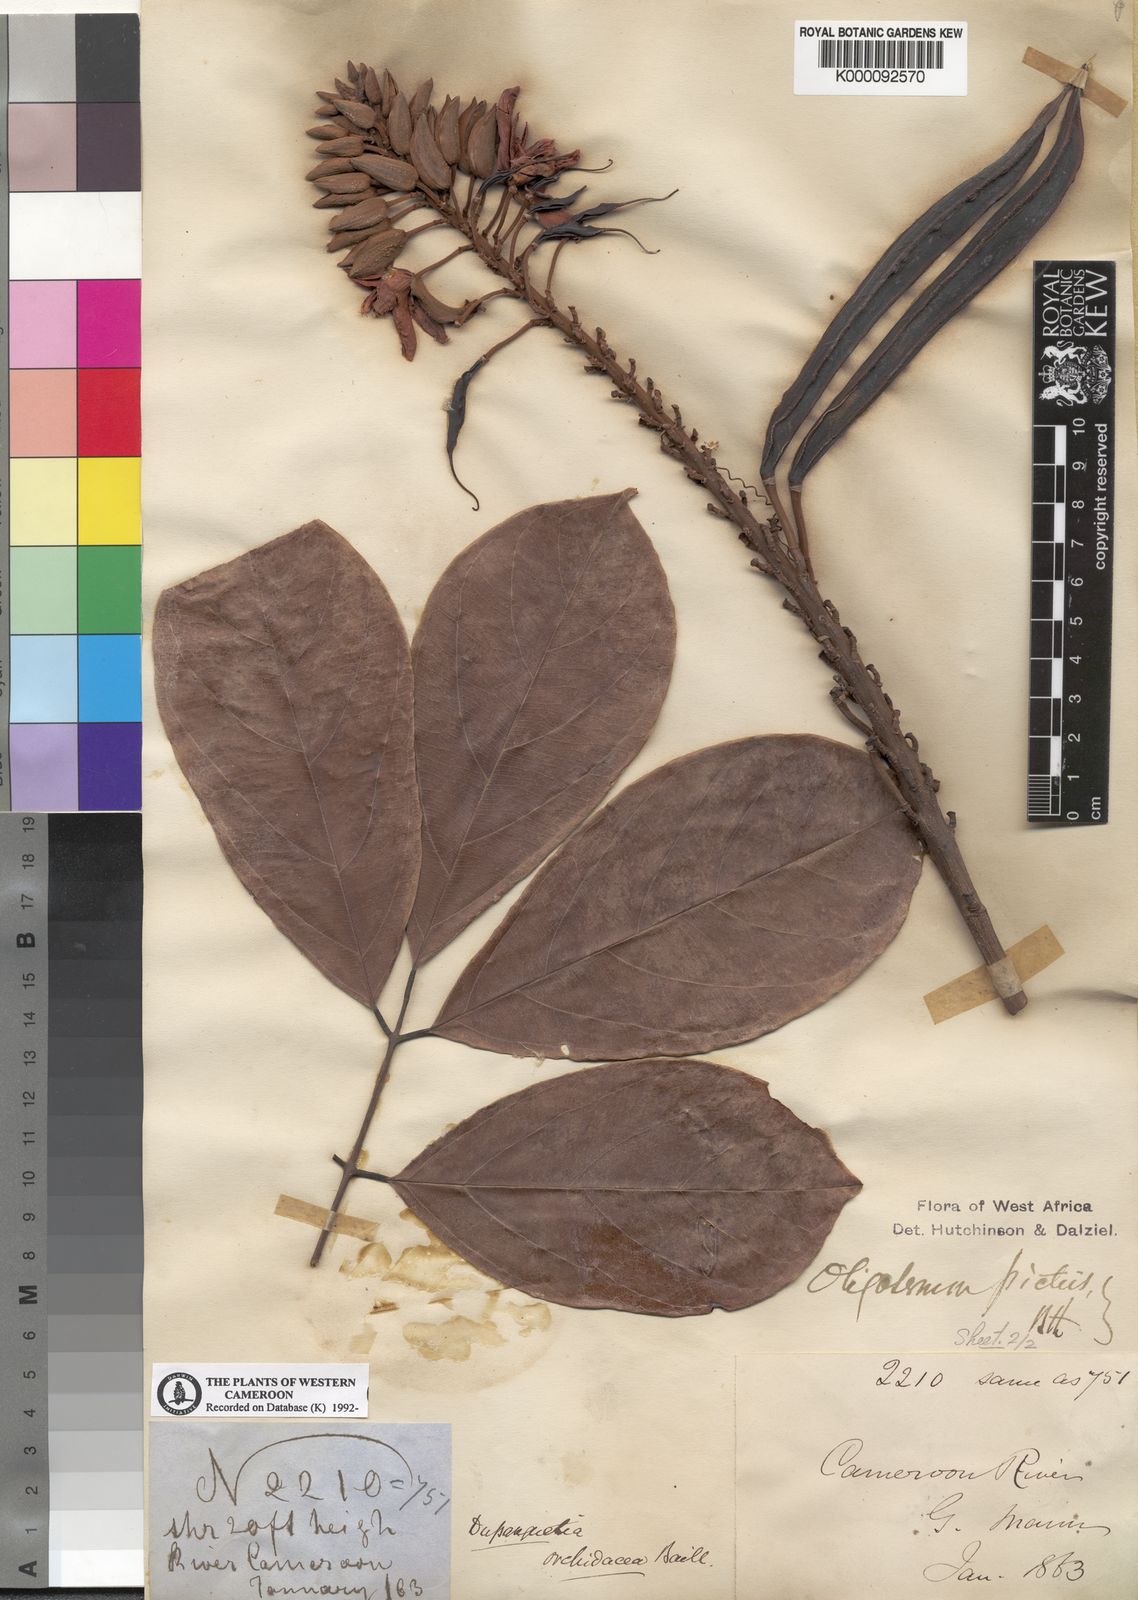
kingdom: Plantae
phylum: Tracheophyta
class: Magnoliopsida
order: Fabales
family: Fabaceae
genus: Duparquetia
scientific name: Duparquetia orchidacea
